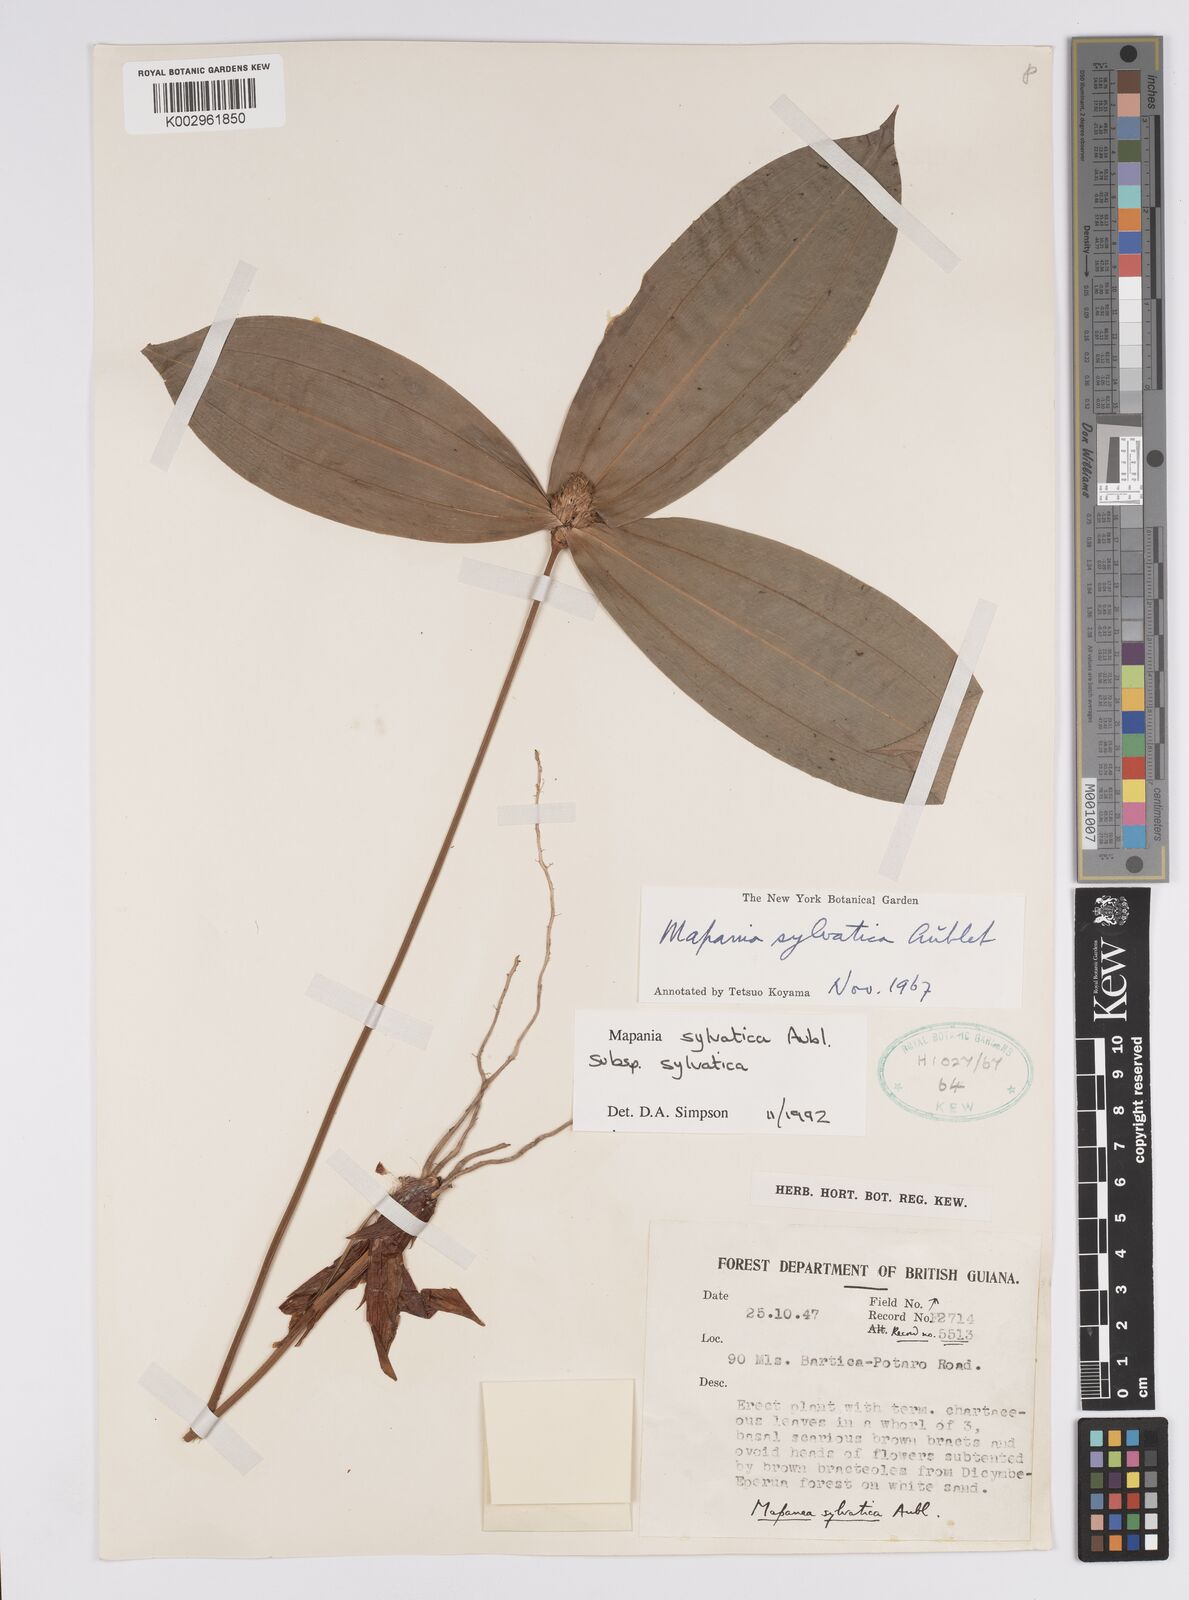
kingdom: Plantae
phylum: Tracheophyta
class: Liliopsida
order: Poales
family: Cyperaceae
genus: Mapania
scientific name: Mapania sylvatica
